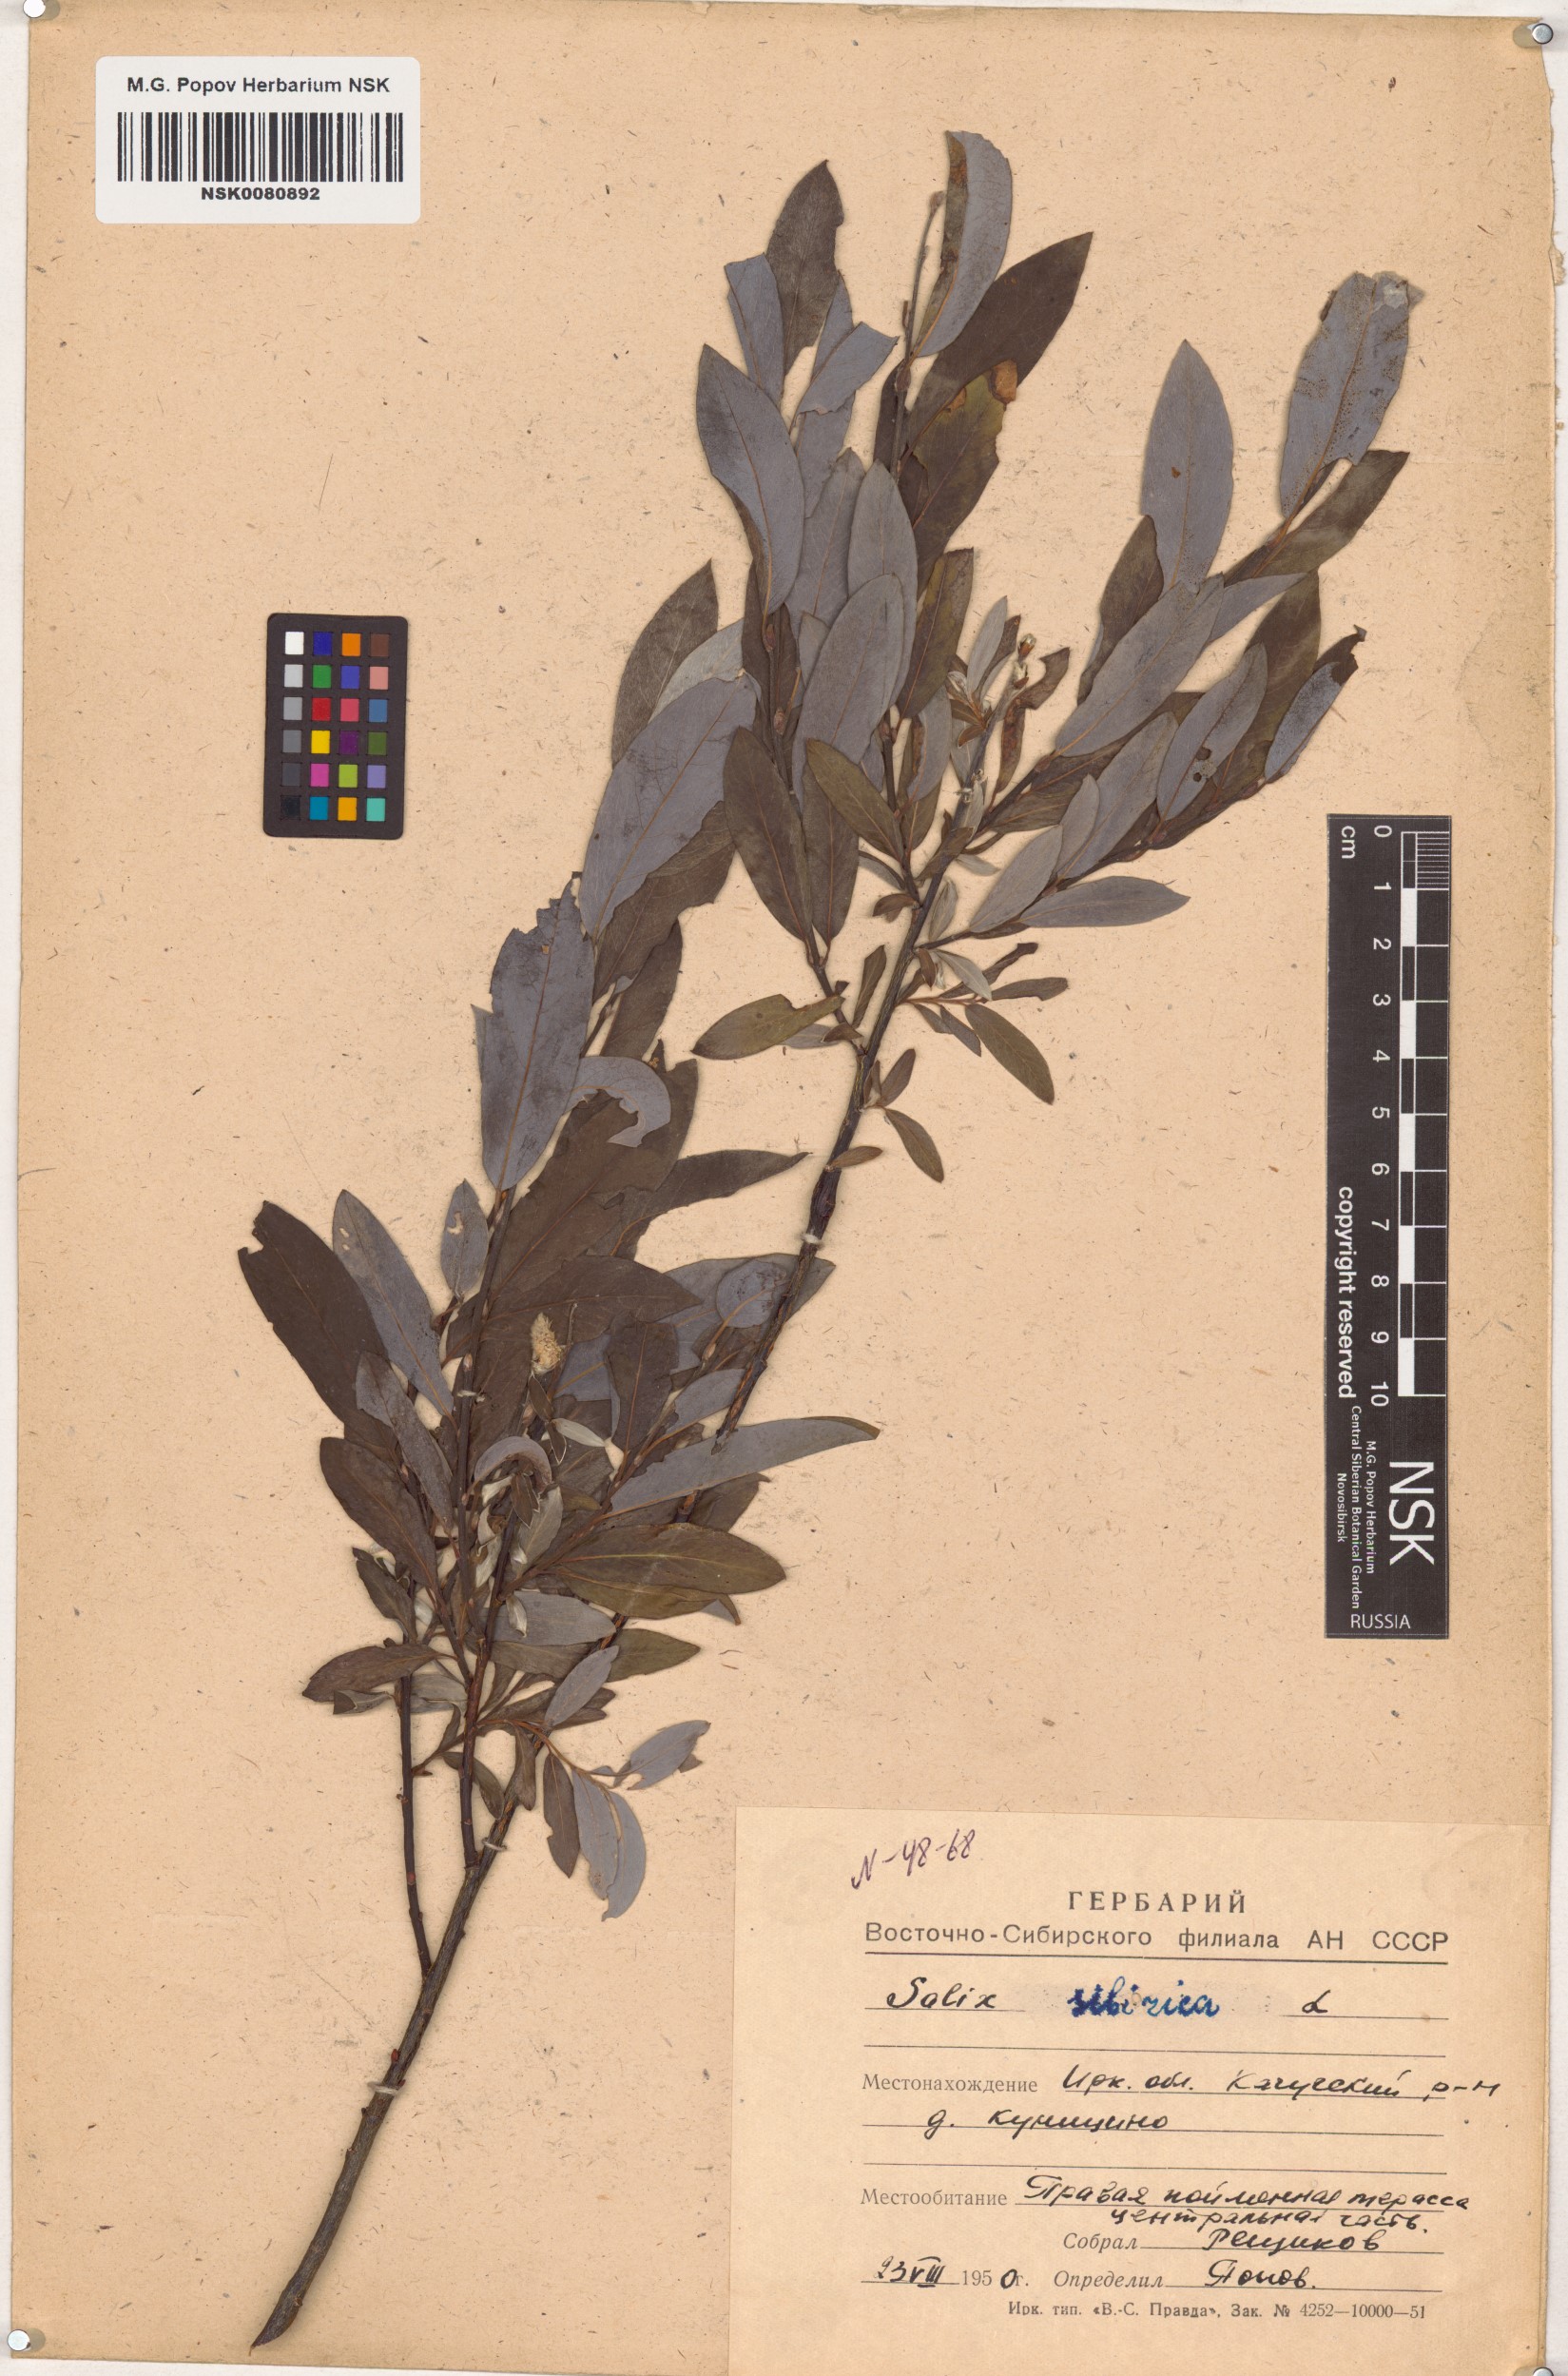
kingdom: Plantae
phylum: Tracheophyta
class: Magnoliopsida
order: Malpighiales
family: Salicaceae
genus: Salix
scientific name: Salix rosmarinifolia
